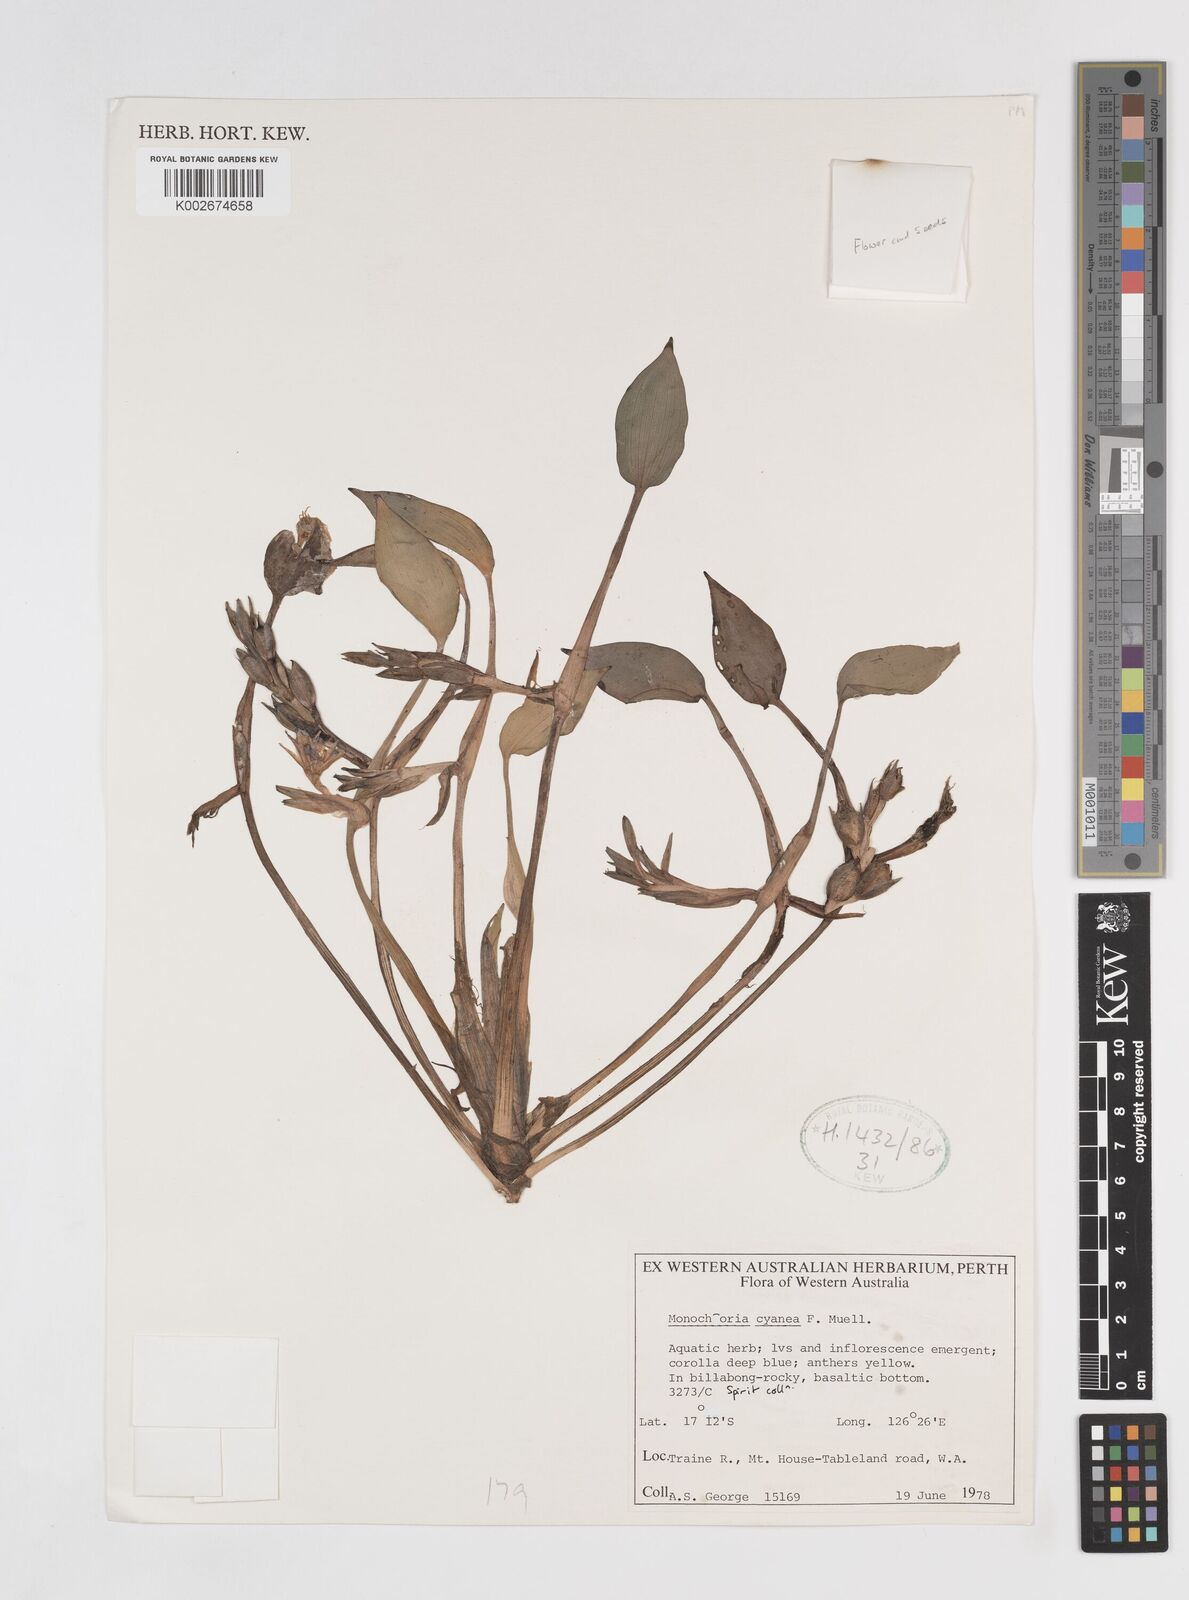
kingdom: Plantae
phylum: Tracheophyta
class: Liliopsida
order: Commelinales
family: Pontederiaceae
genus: Pontederia
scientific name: Pontederia cyanea
